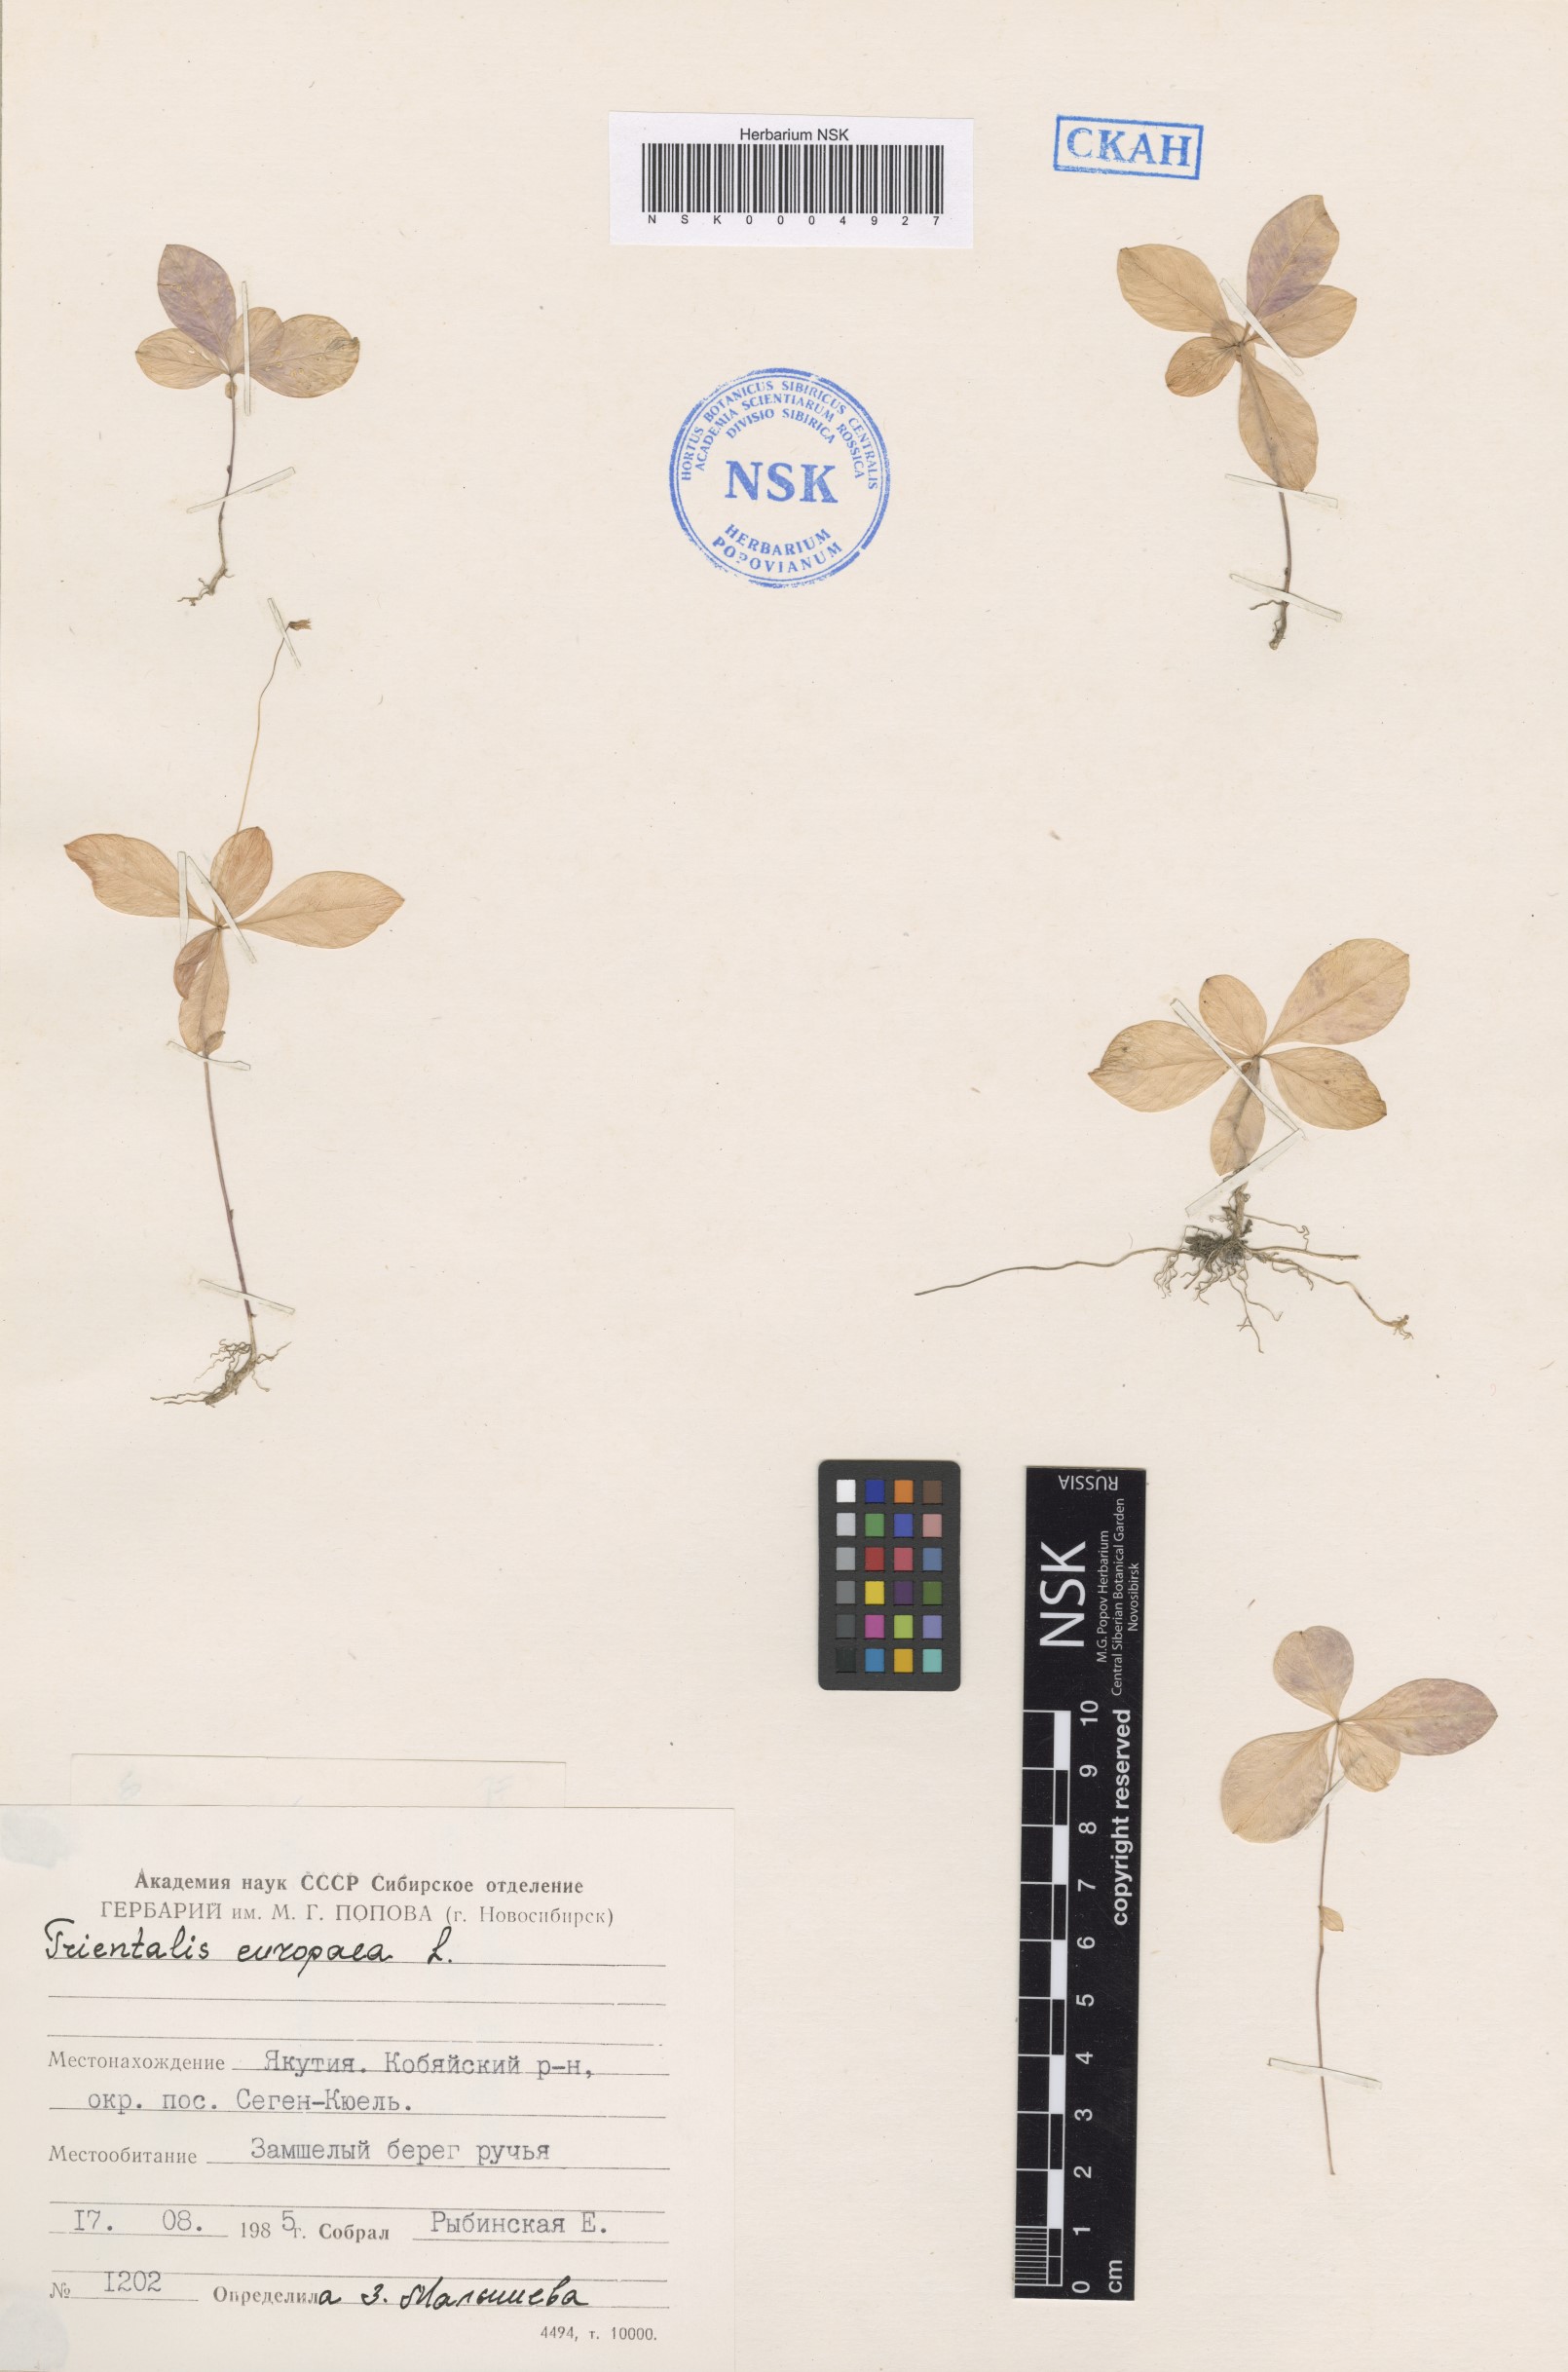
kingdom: Plantae
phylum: Tracheophyta
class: Magnoliopsida
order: Ericales
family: Primulaceae
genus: Lysimachia
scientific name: Lysimachia europaea
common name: Arctic starflower
